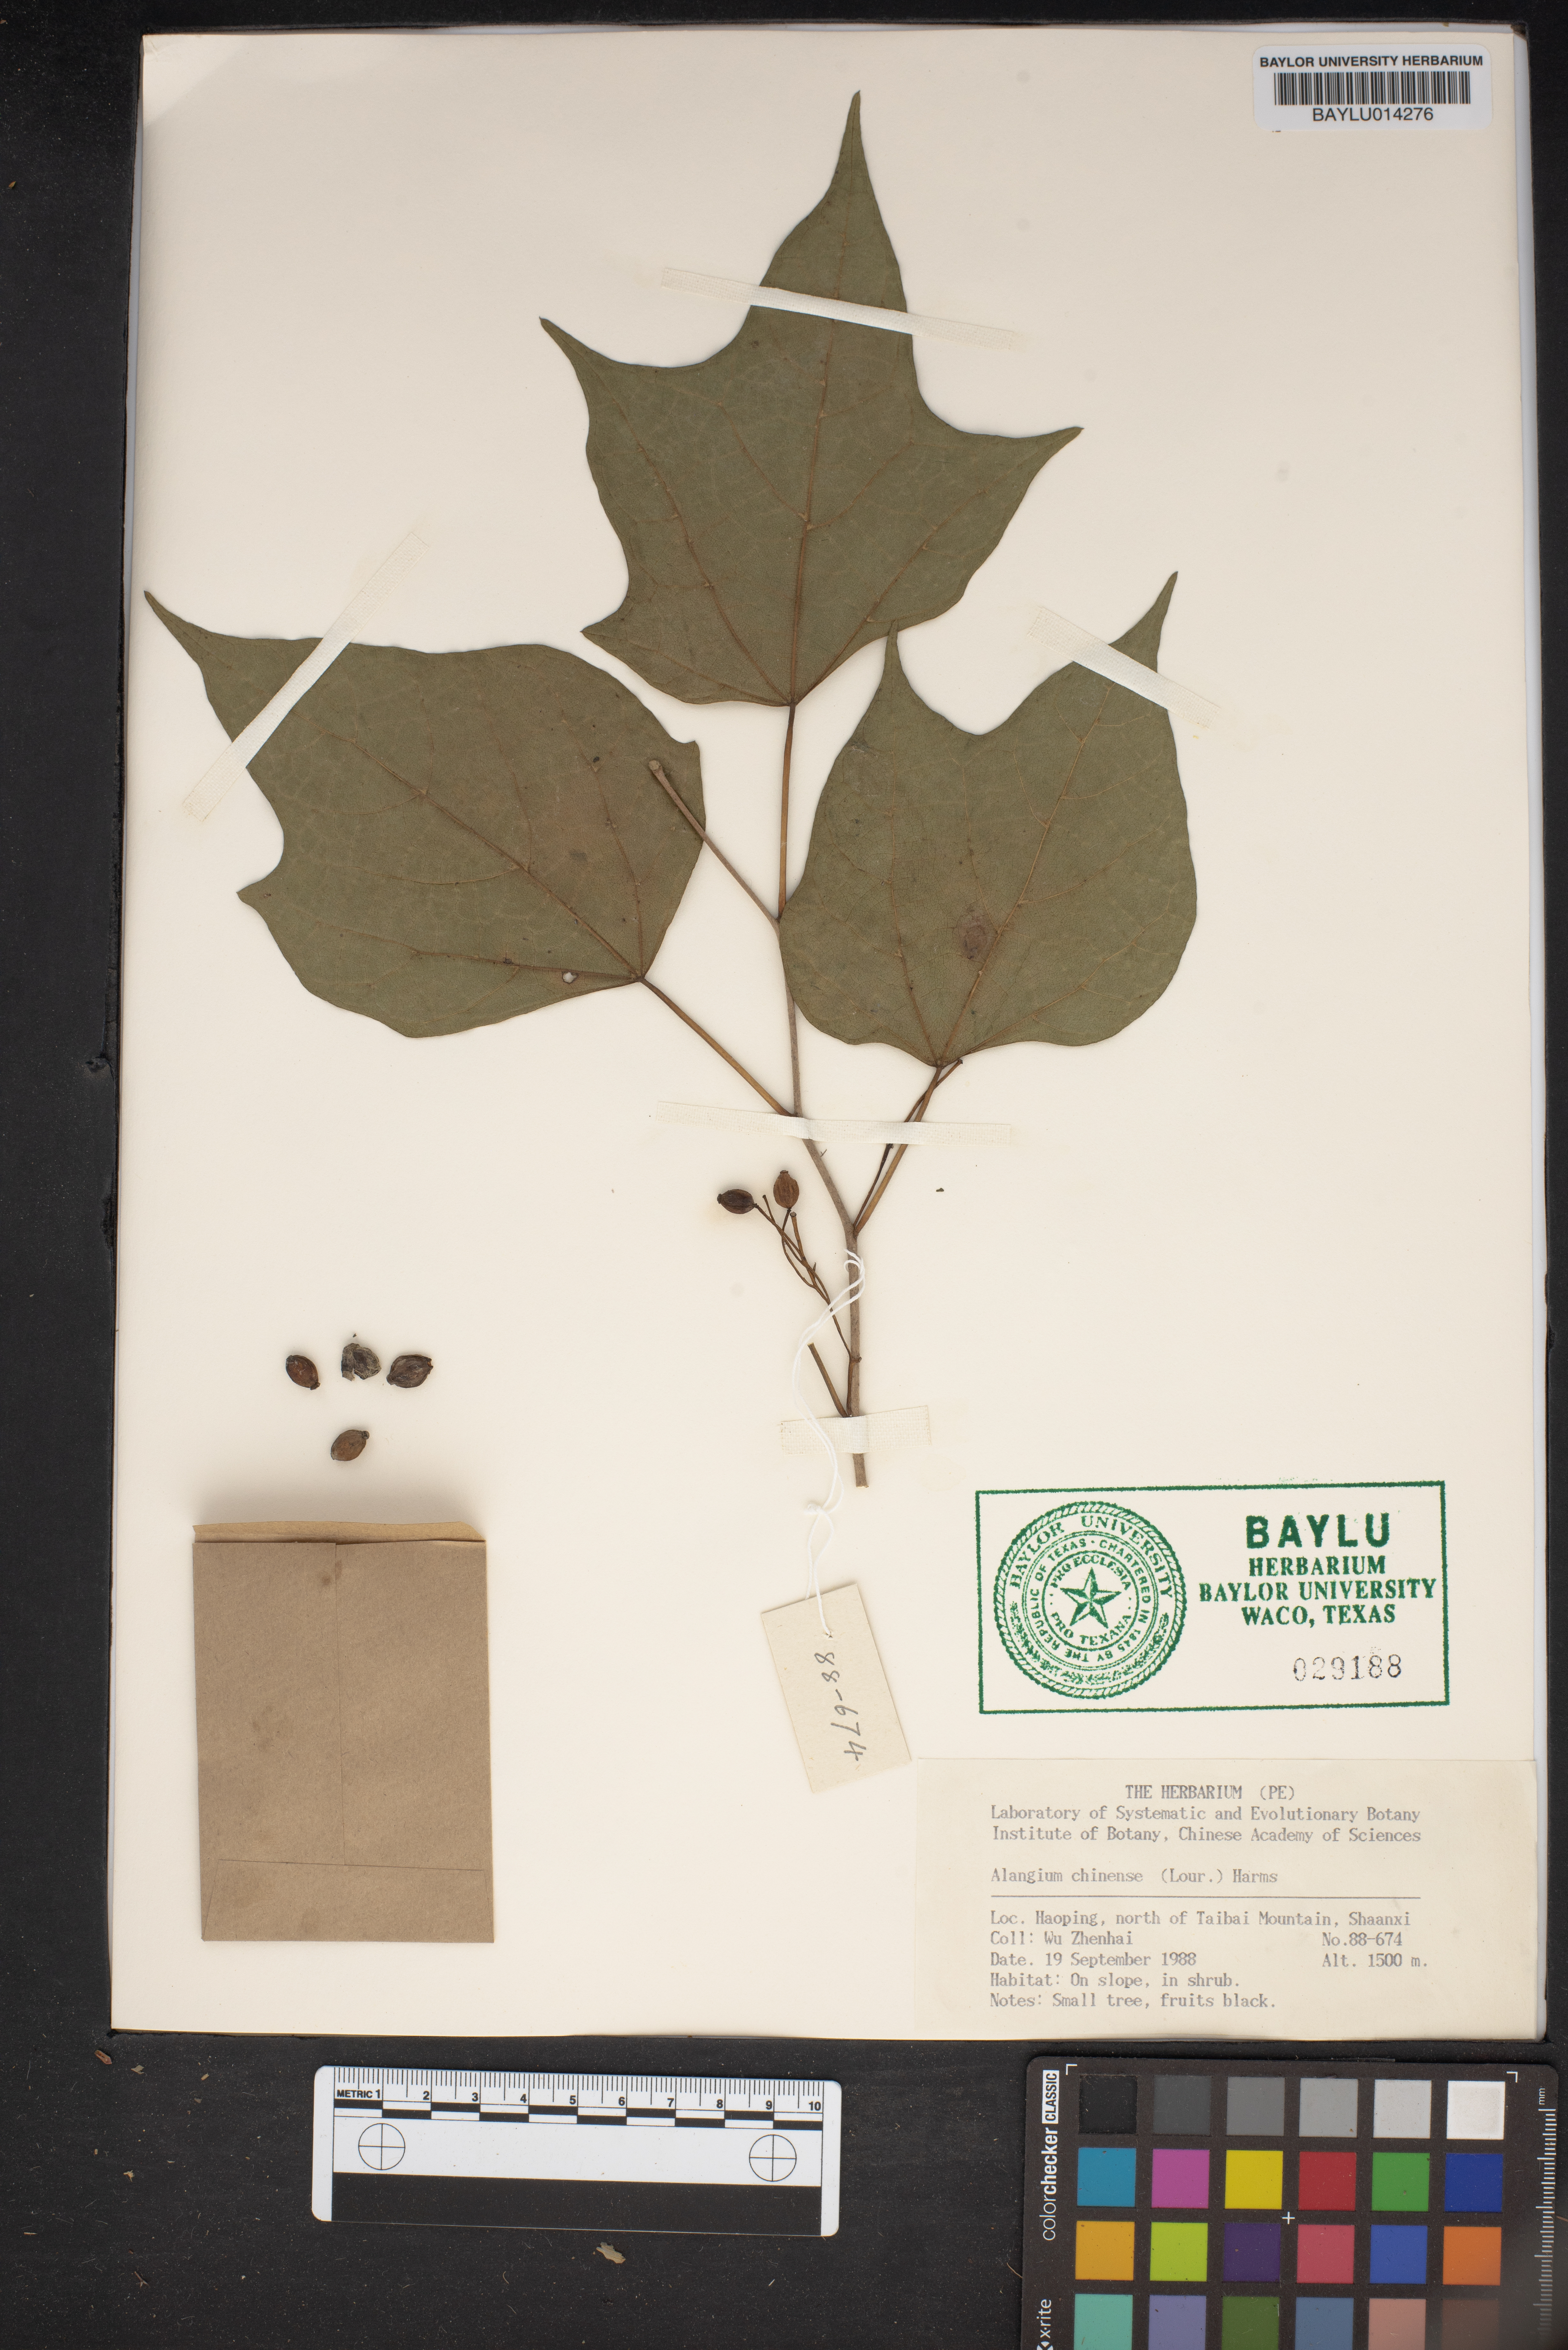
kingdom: Plantae
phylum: Tracheophyta
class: Magnoliopsida
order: Cornales
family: Cornaceae
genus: Alangium
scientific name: Alangium chinense
